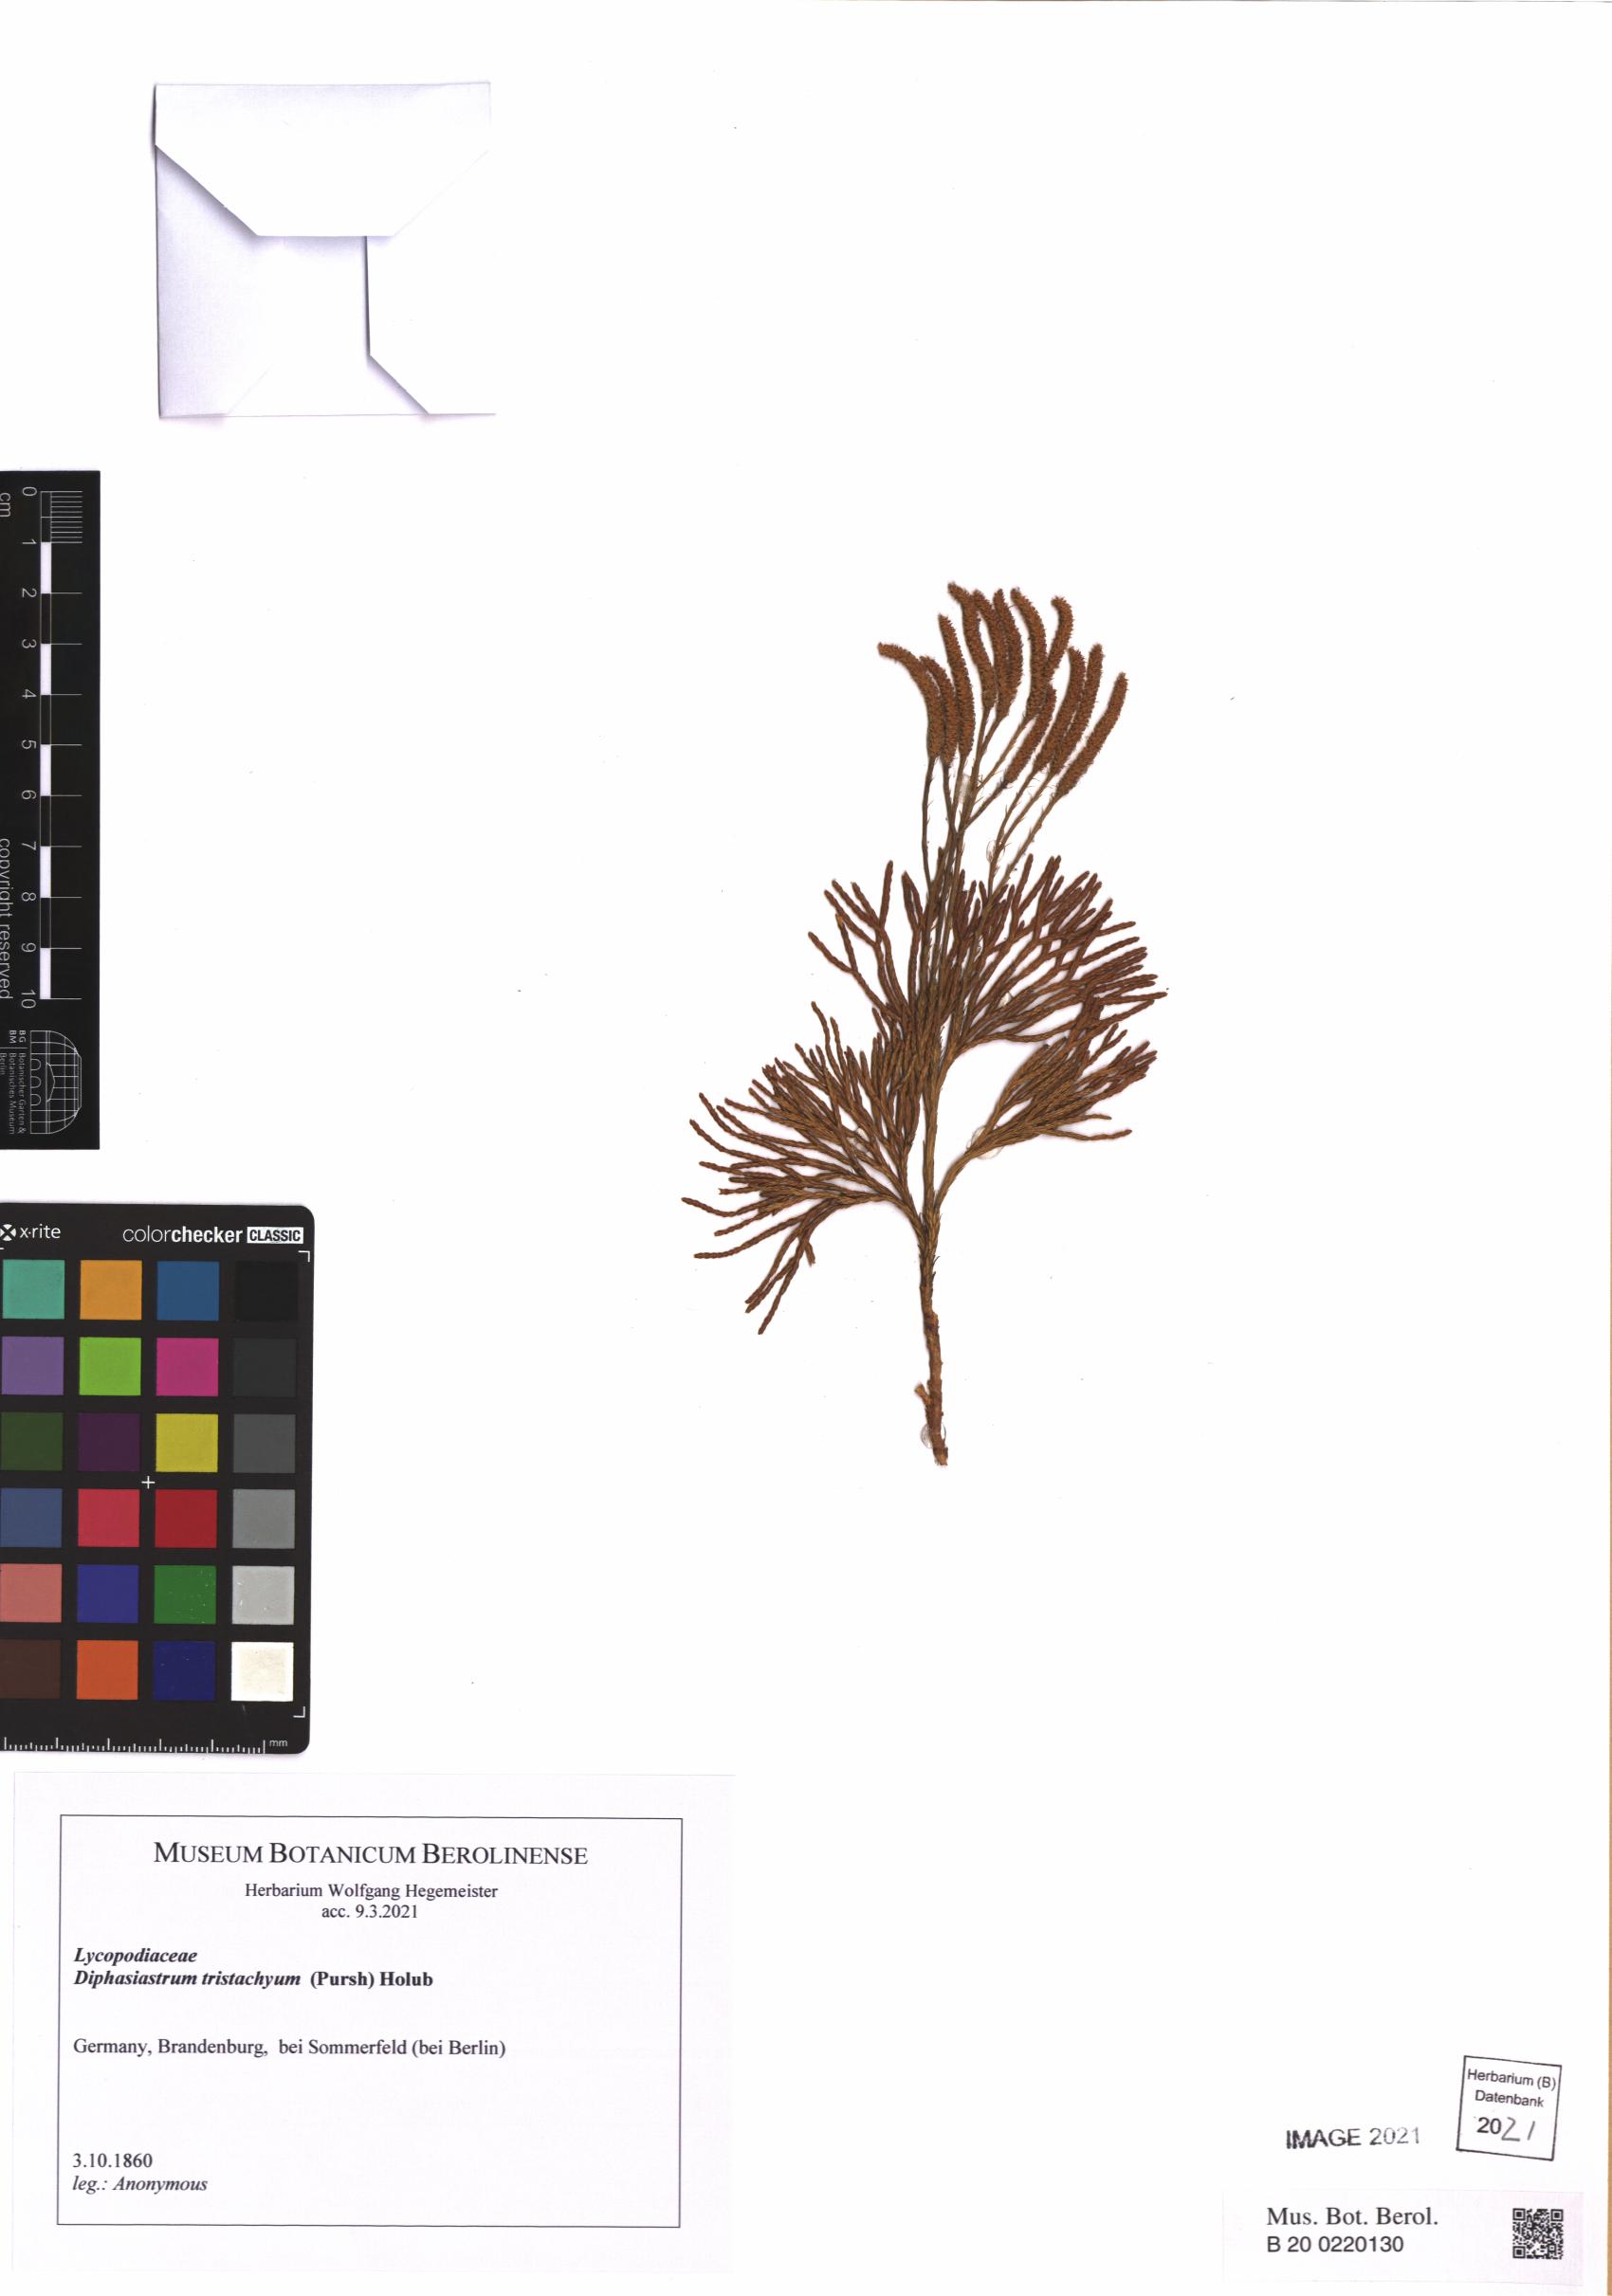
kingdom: Plantae
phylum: Tracheophyta
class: Lycopodiopsida
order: Lycopodiales
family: Lycopodiaceae
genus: Diphasiastrum
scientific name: Diphasiastrum tristachyum
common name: Blue ground-cedar
